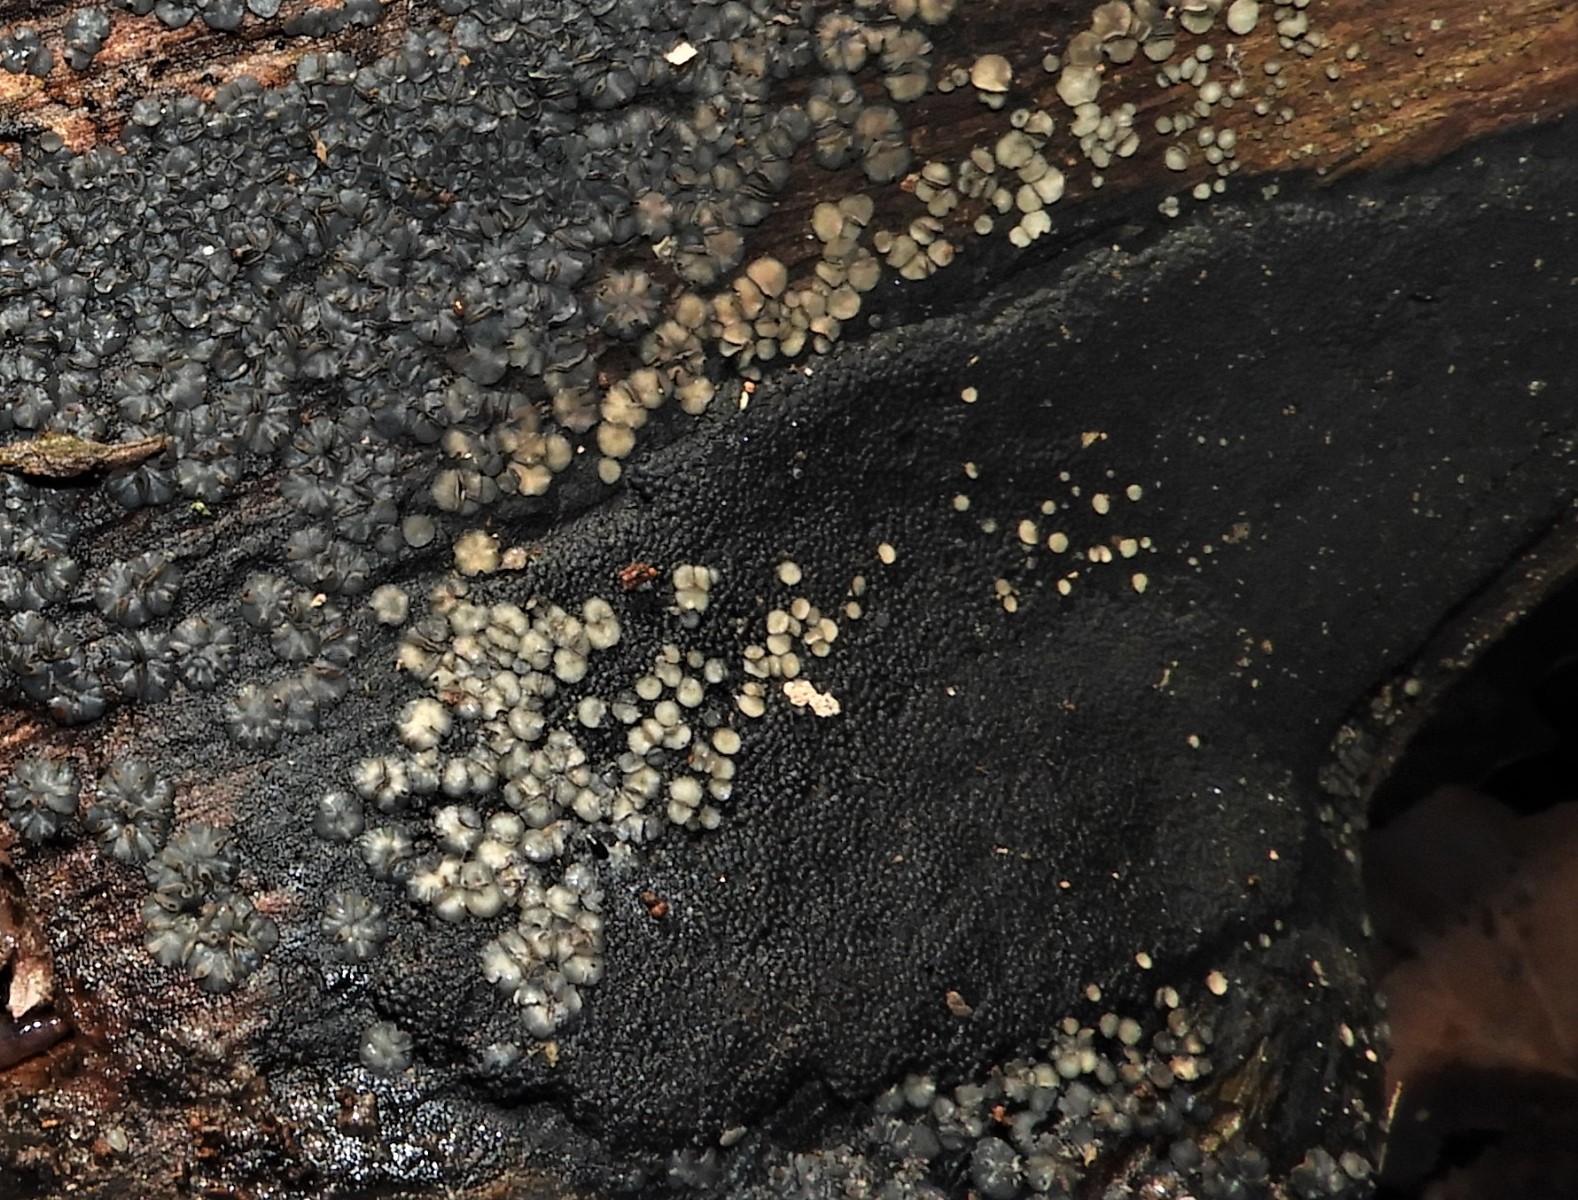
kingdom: Fungi
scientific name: Fungi
